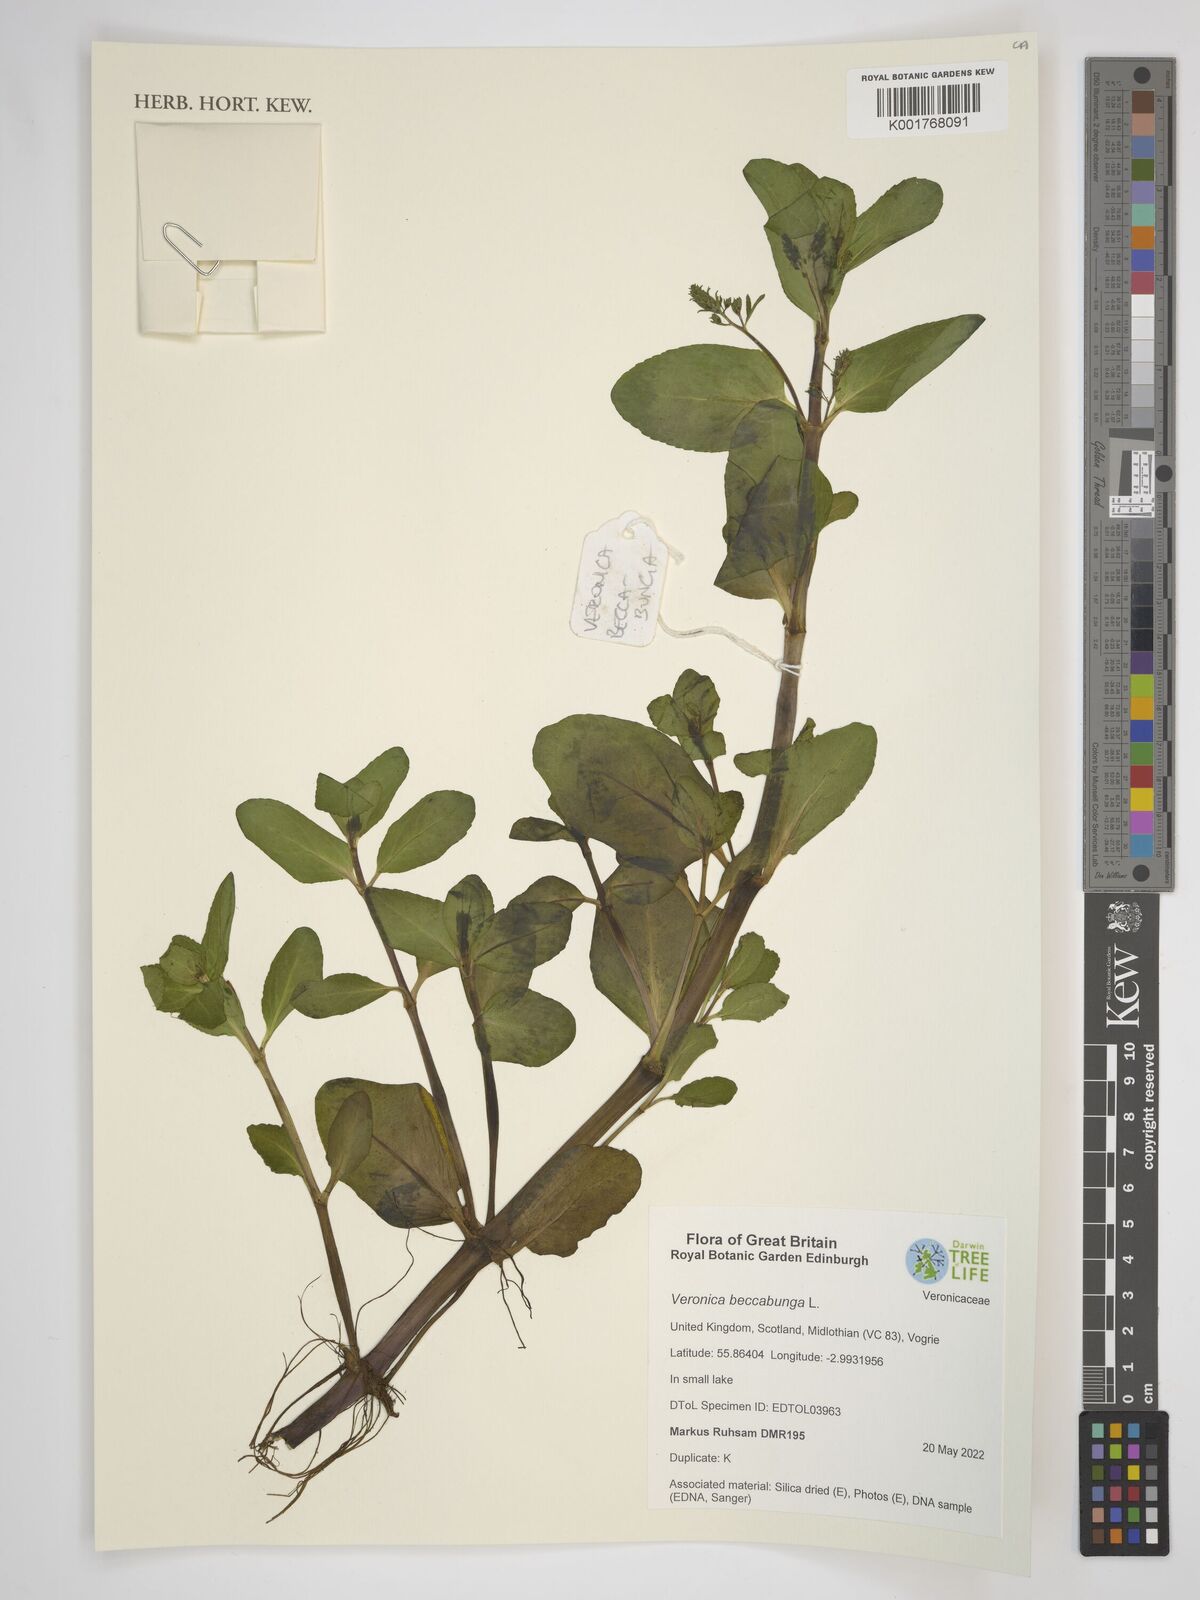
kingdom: Plantae
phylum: Tracheophyta
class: Magnoliopsida
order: Lamiales
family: Plantaginaceae
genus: Veronica
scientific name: Veronica beccabunga
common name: Brooklime
